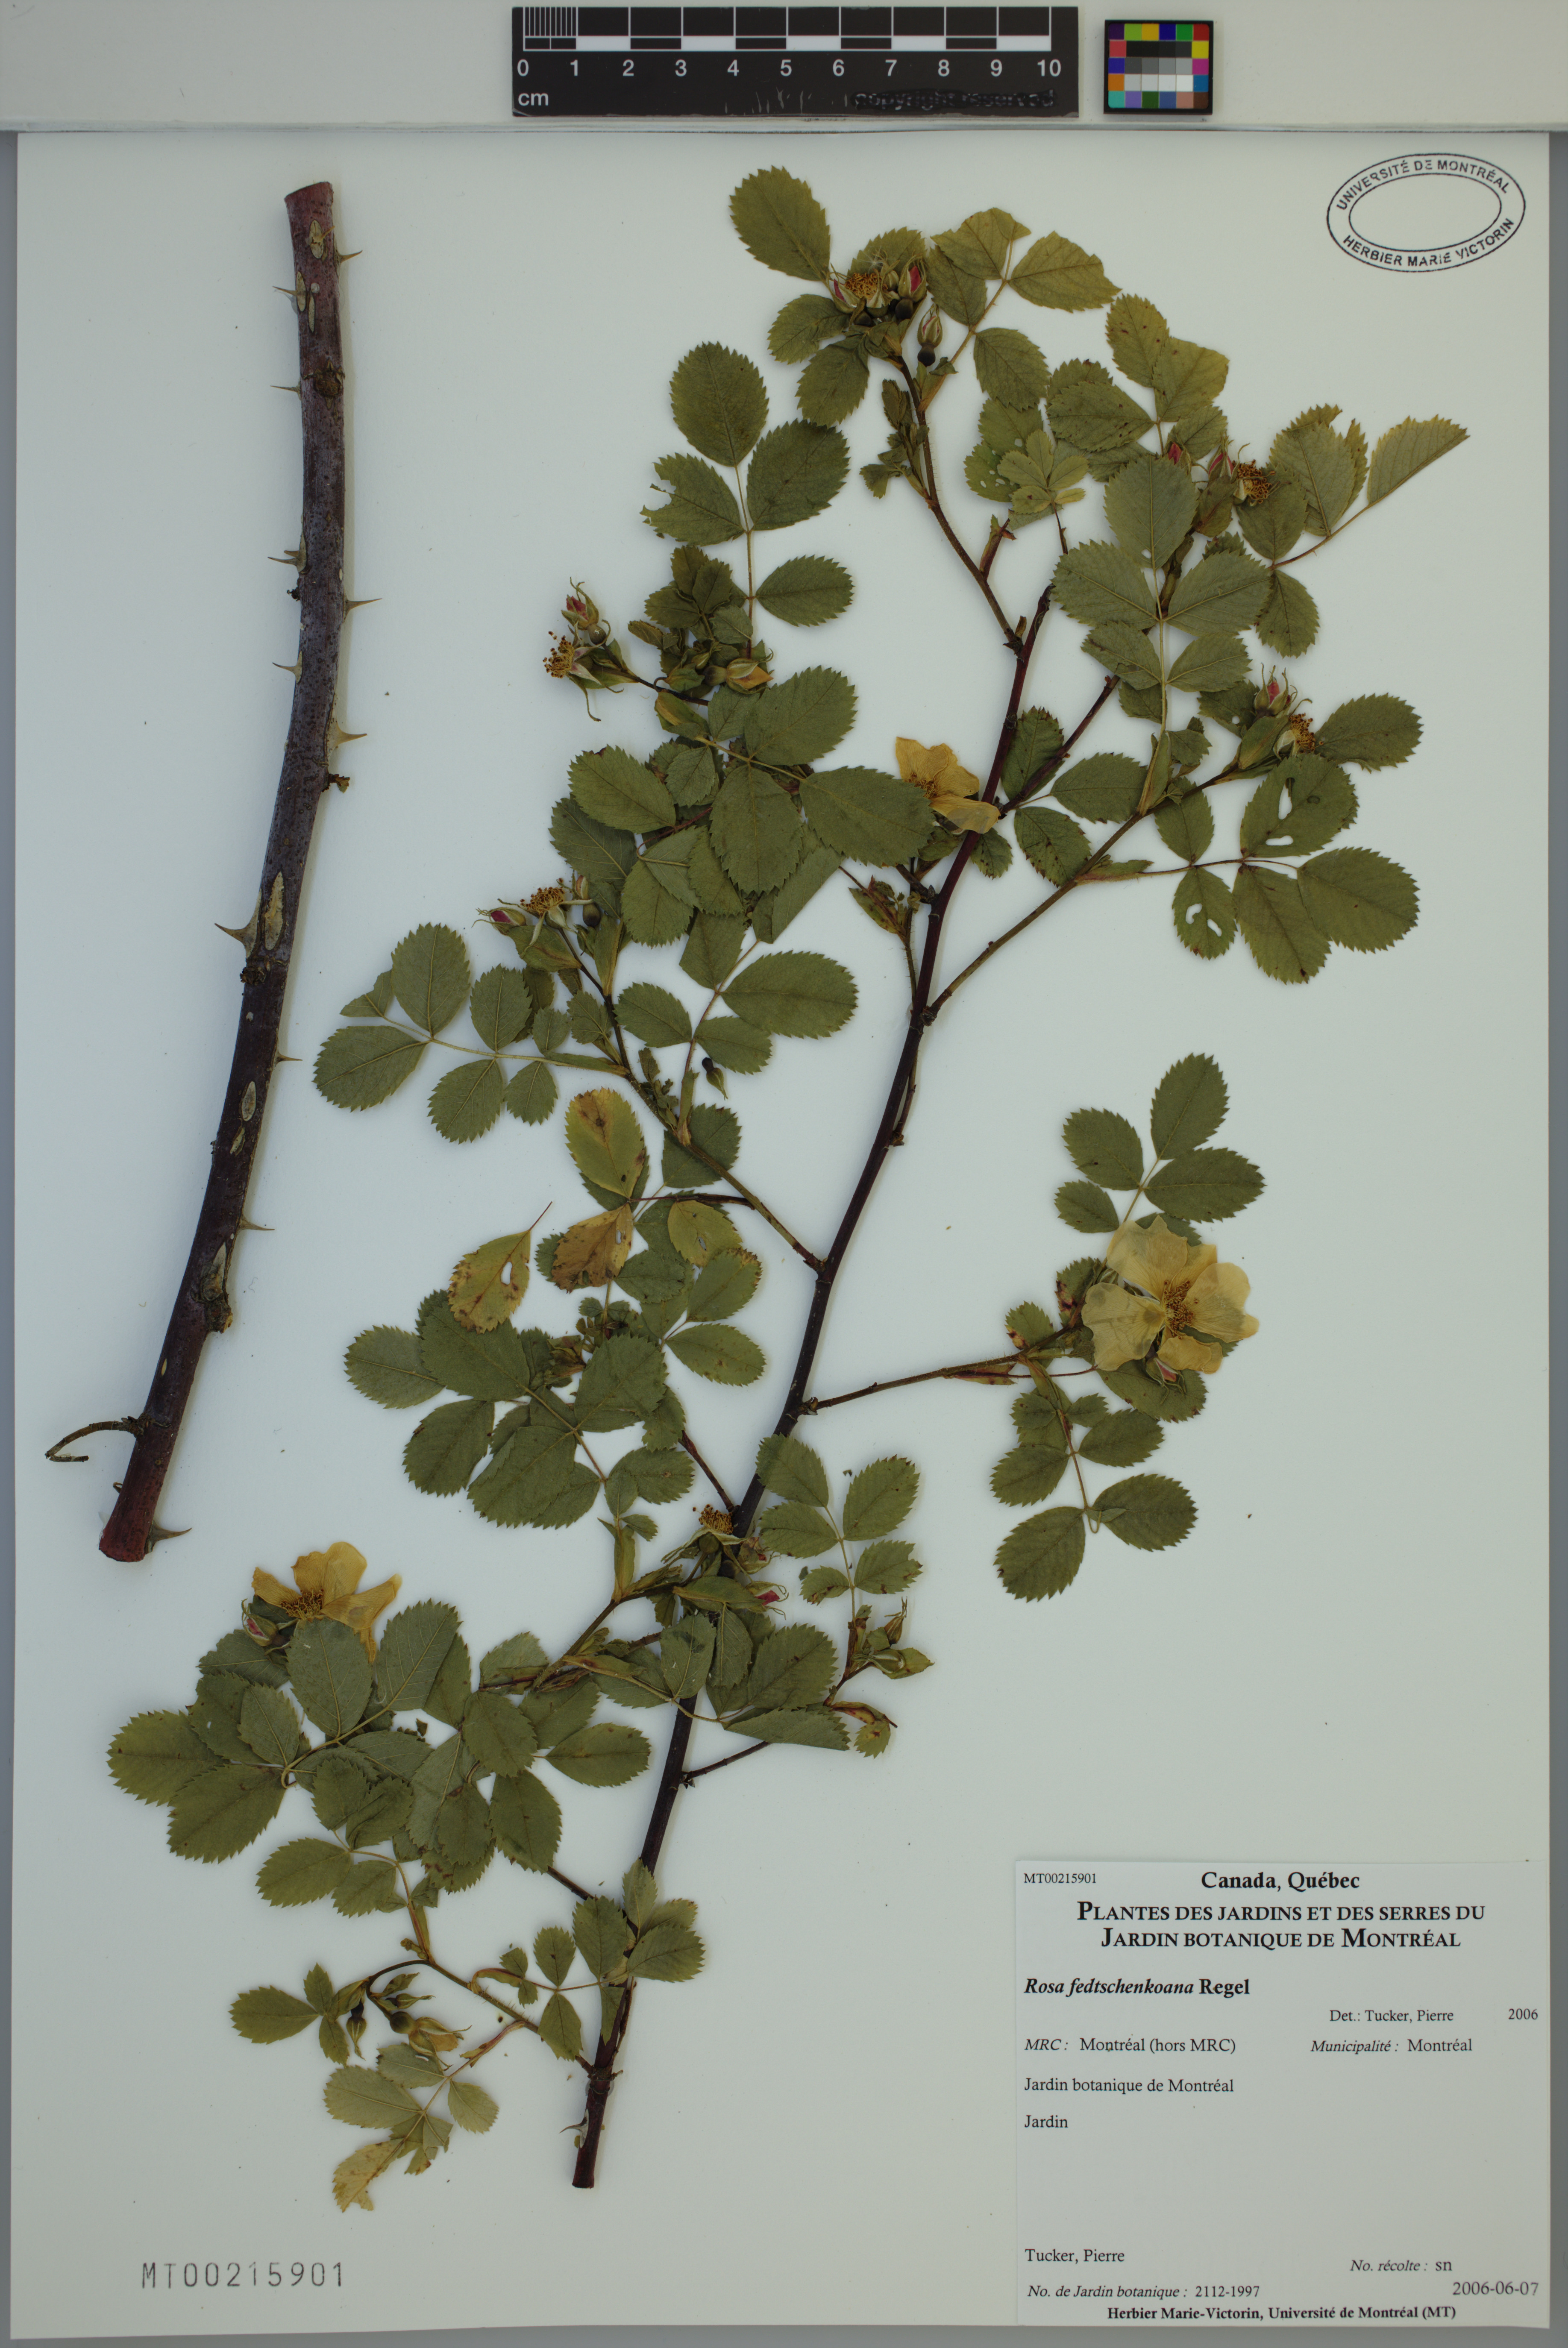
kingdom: Plantae
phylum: Tracheophyta
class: Magnoliopsida
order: Rosales
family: Rosaceae
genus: Rosa
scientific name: Rosa webbiana
